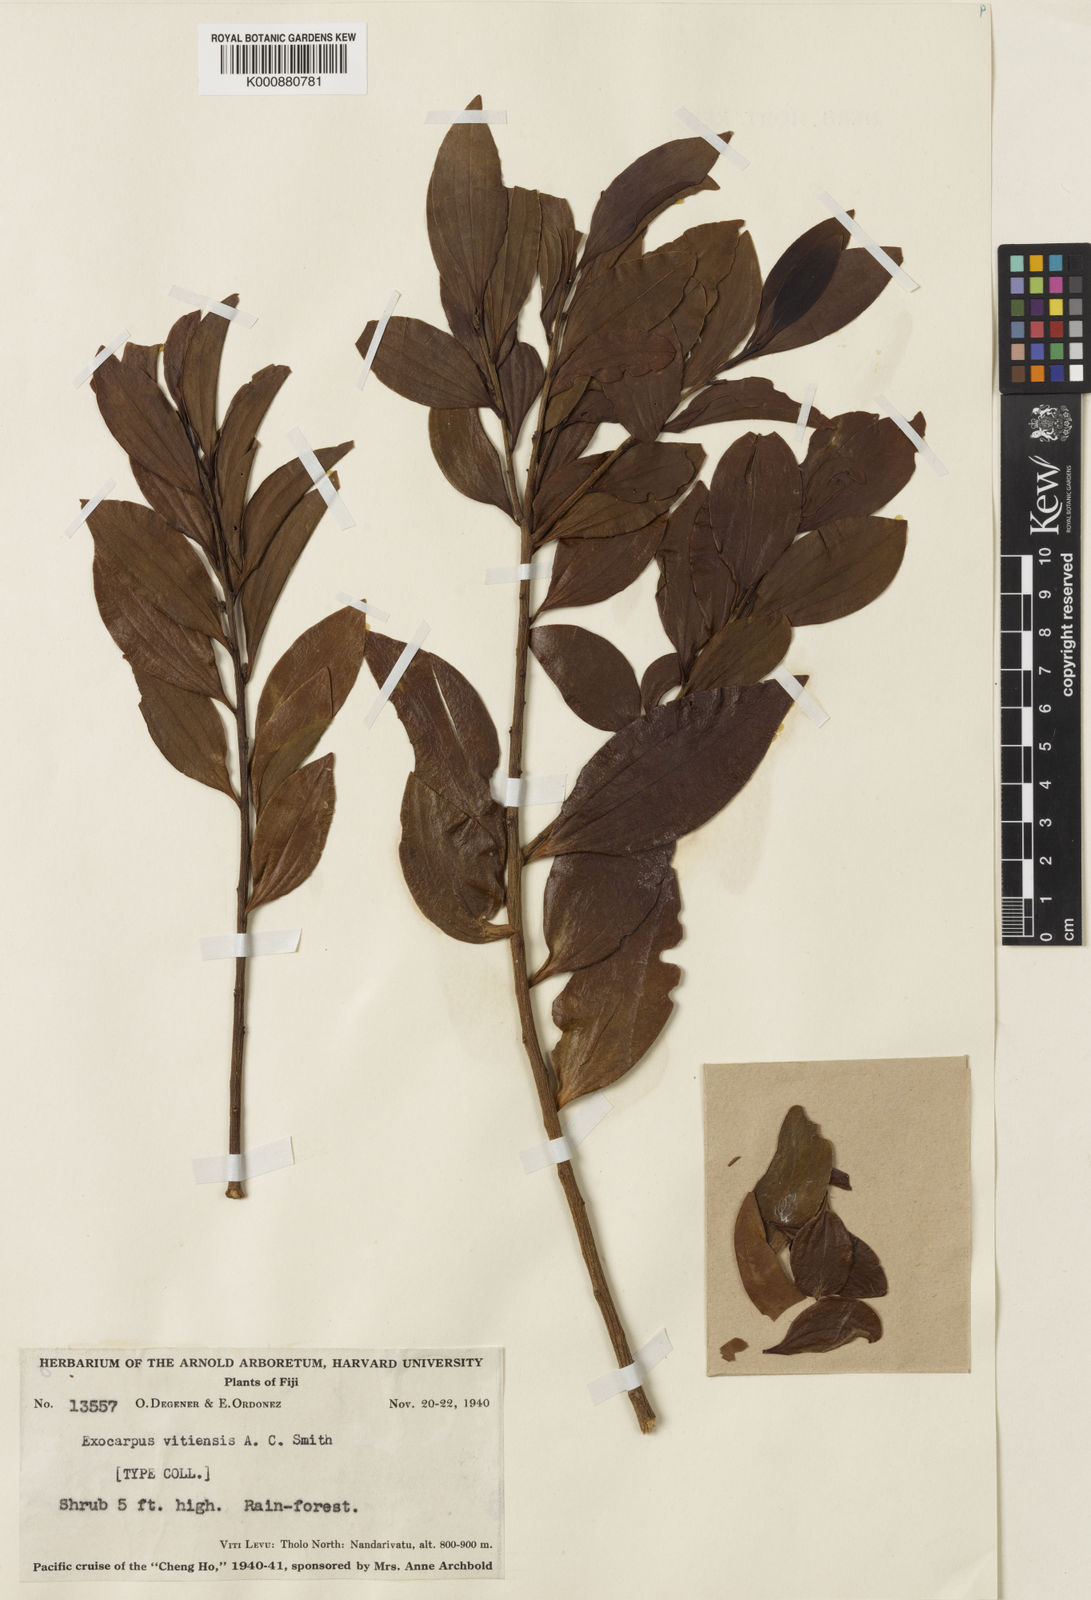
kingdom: Plantae
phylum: Tracheophyta
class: Magnoliopsida
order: Santalales
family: Santalaceae
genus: Exocarpos
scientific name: Exocarpos vitiensis
